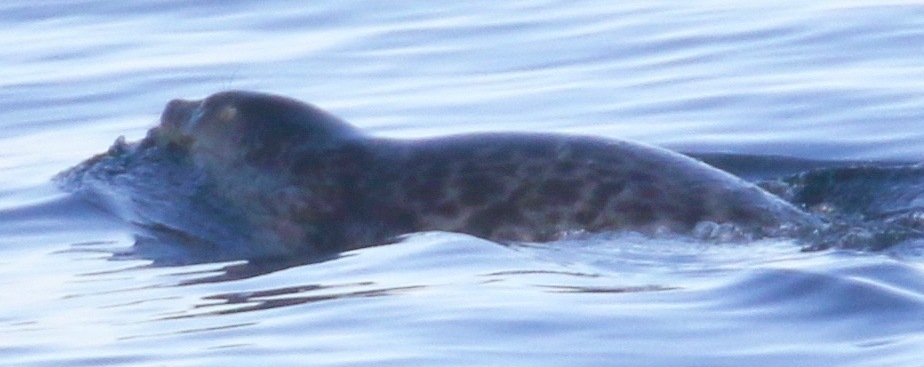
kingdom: Animalia
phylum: Chordata
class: Mammalia
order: Carnivora
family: Phocidae
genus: Pagophilus
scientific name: Pagophilus groenlandicus
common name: Harp Seal
